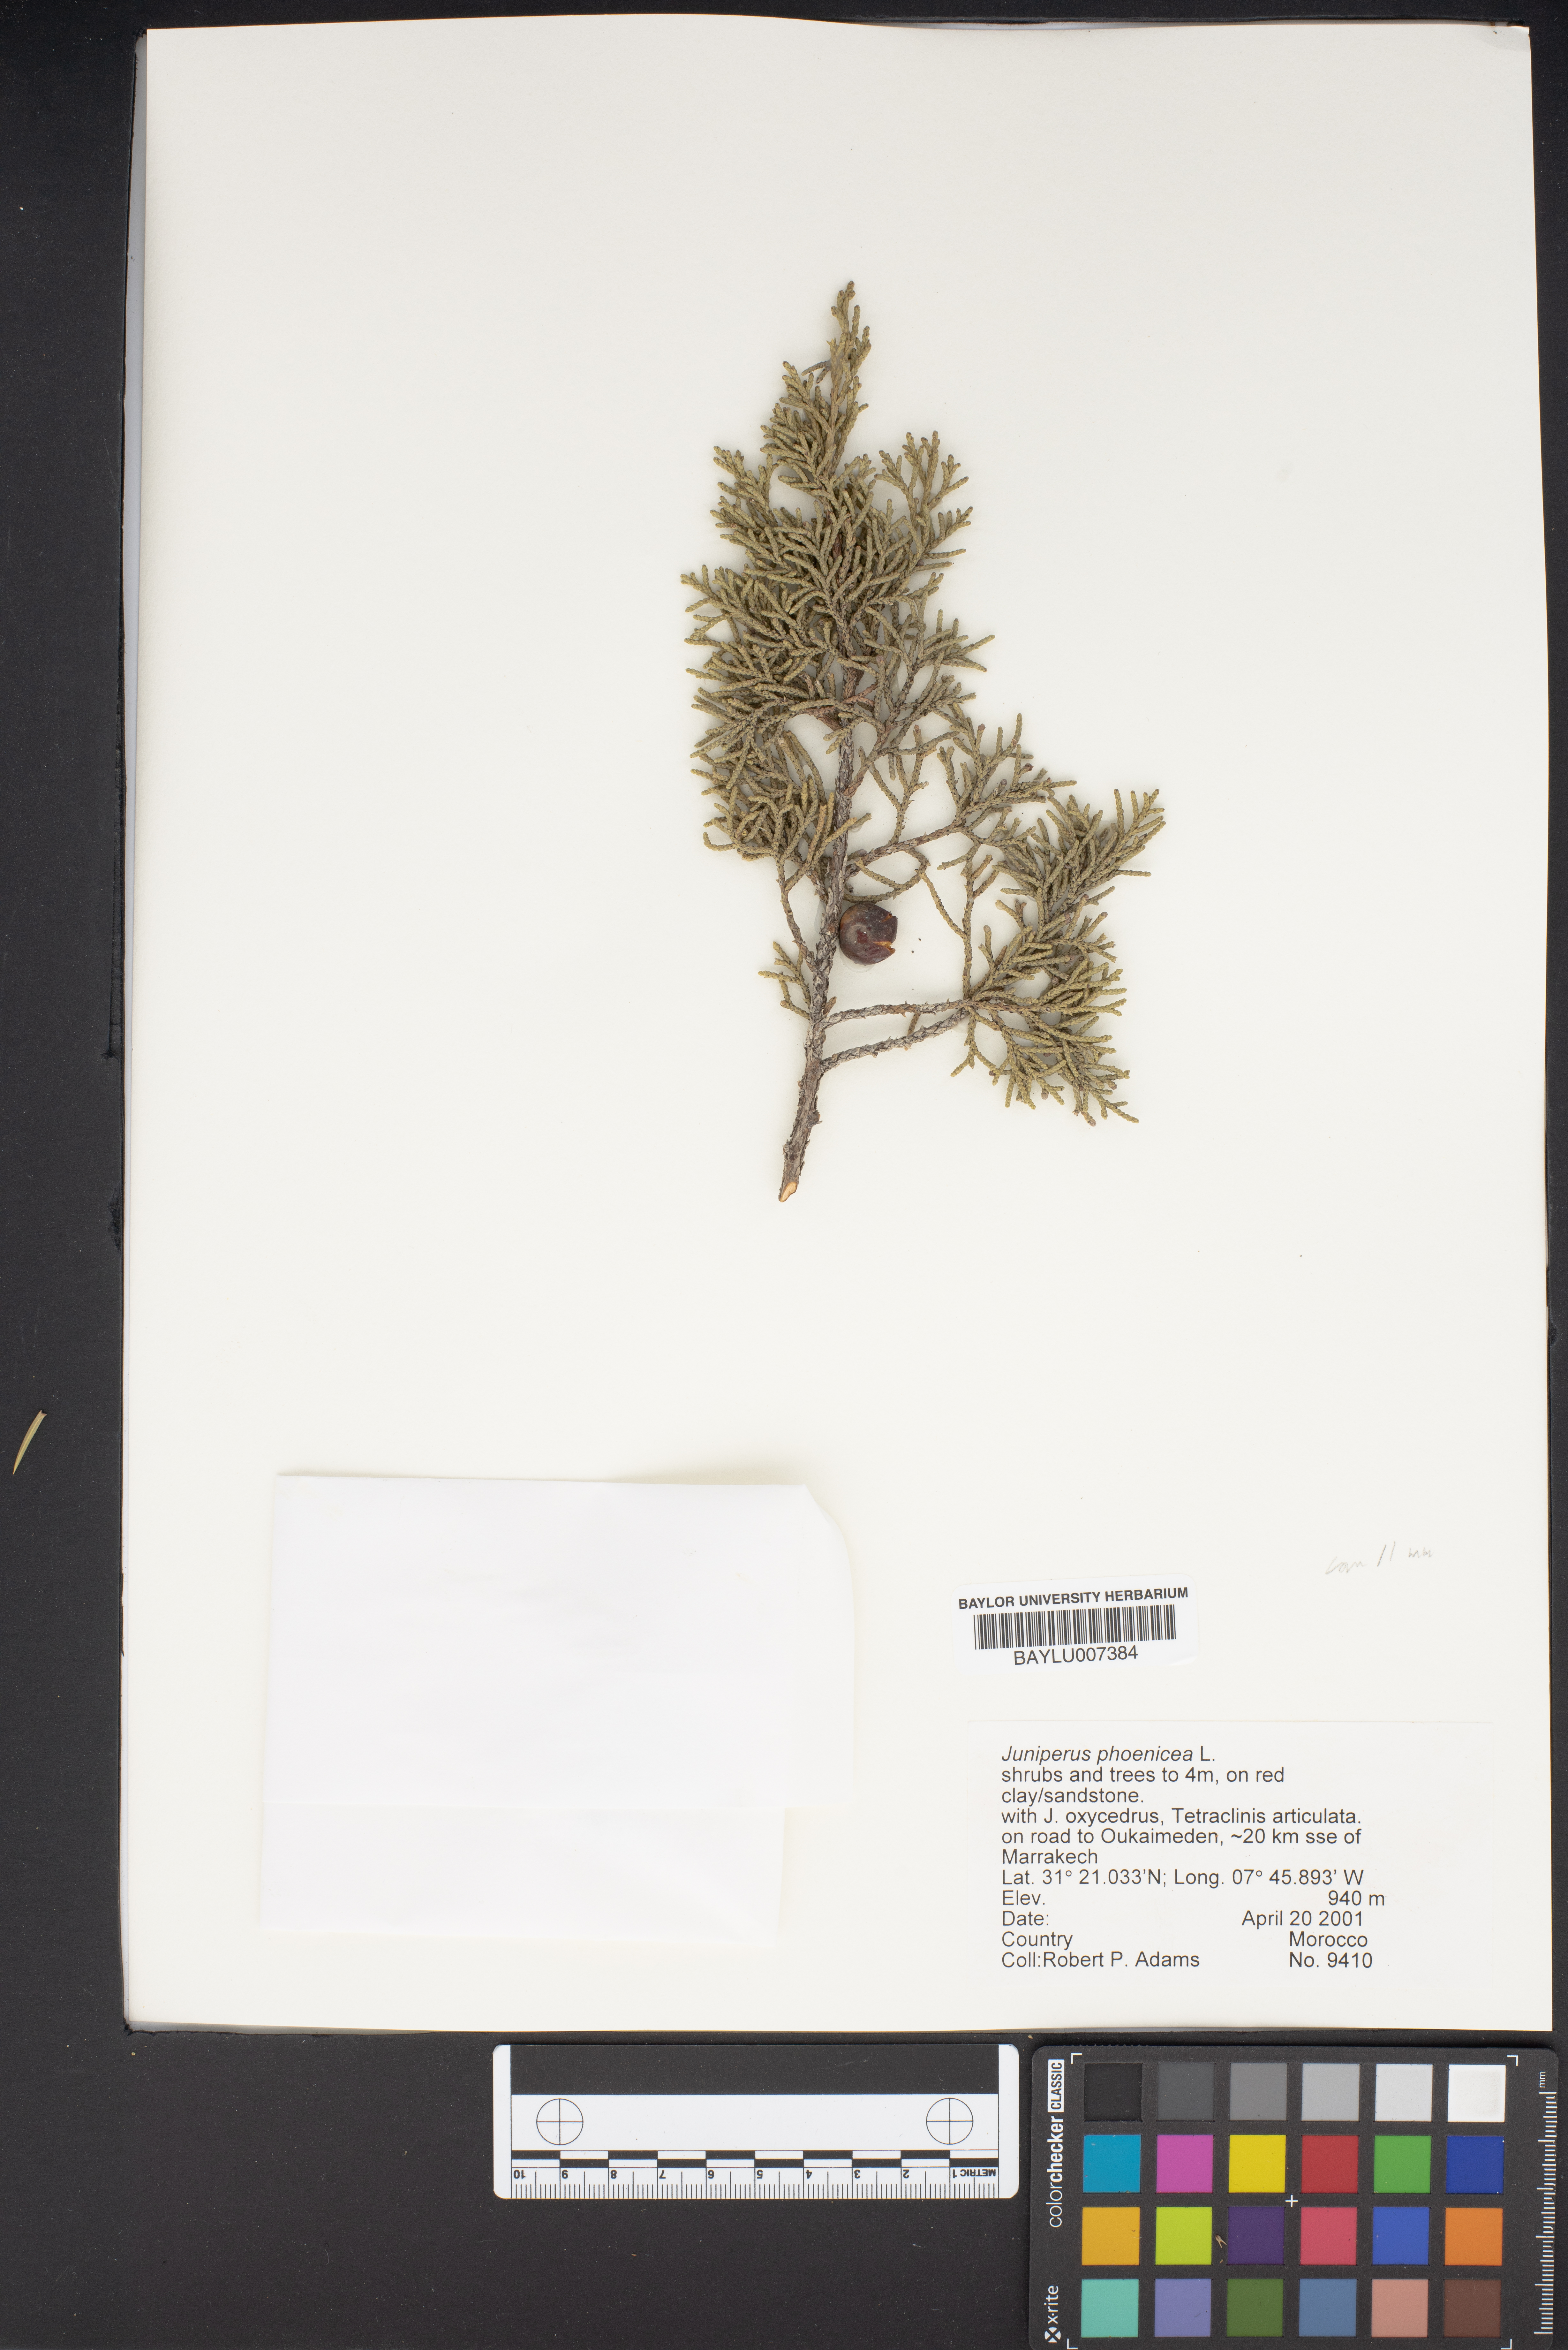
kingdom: Plantae
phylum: Tracheophyta
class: Pinopsida
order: Pinales
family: Cupressaceae
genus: Juniperus
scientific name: Juniperus phoenicea
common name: Phoenician juniper
